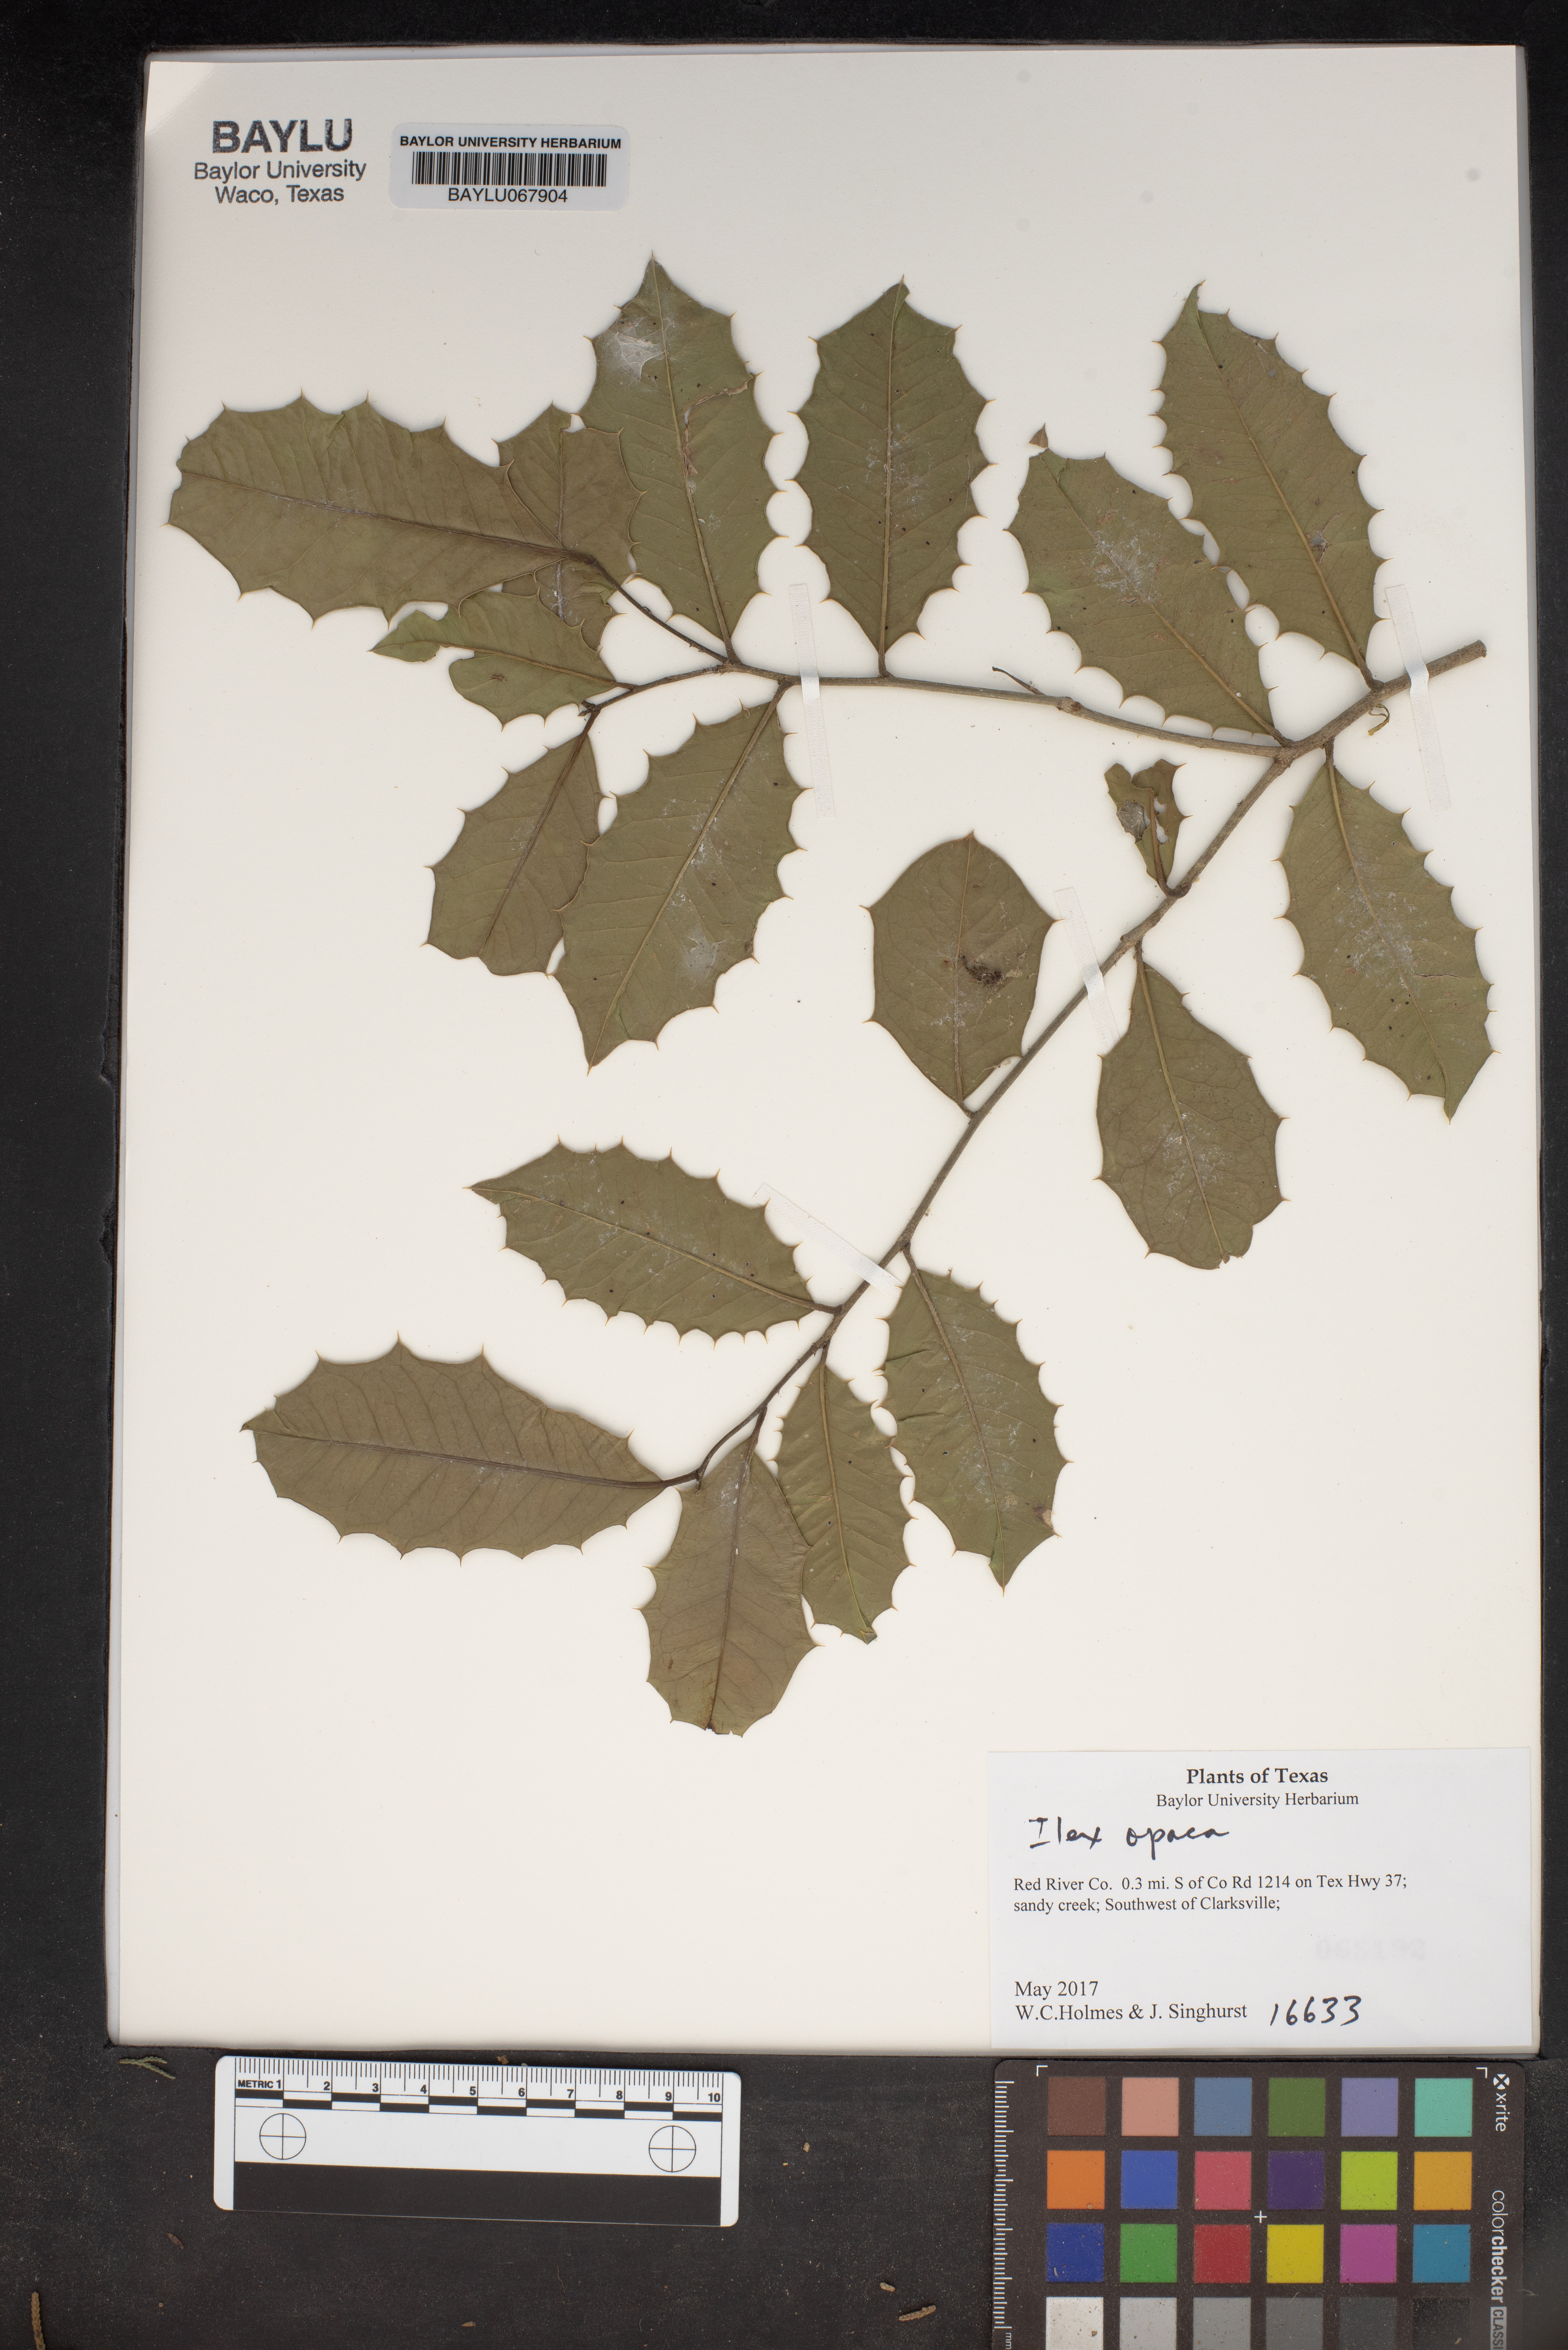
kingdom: Plantae
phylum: Tracheophyta
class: Magnoliopsida
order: Aquifoliales
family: Aquifoliaceae
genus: Ilex
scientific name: Ilex opaca
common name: American holly
